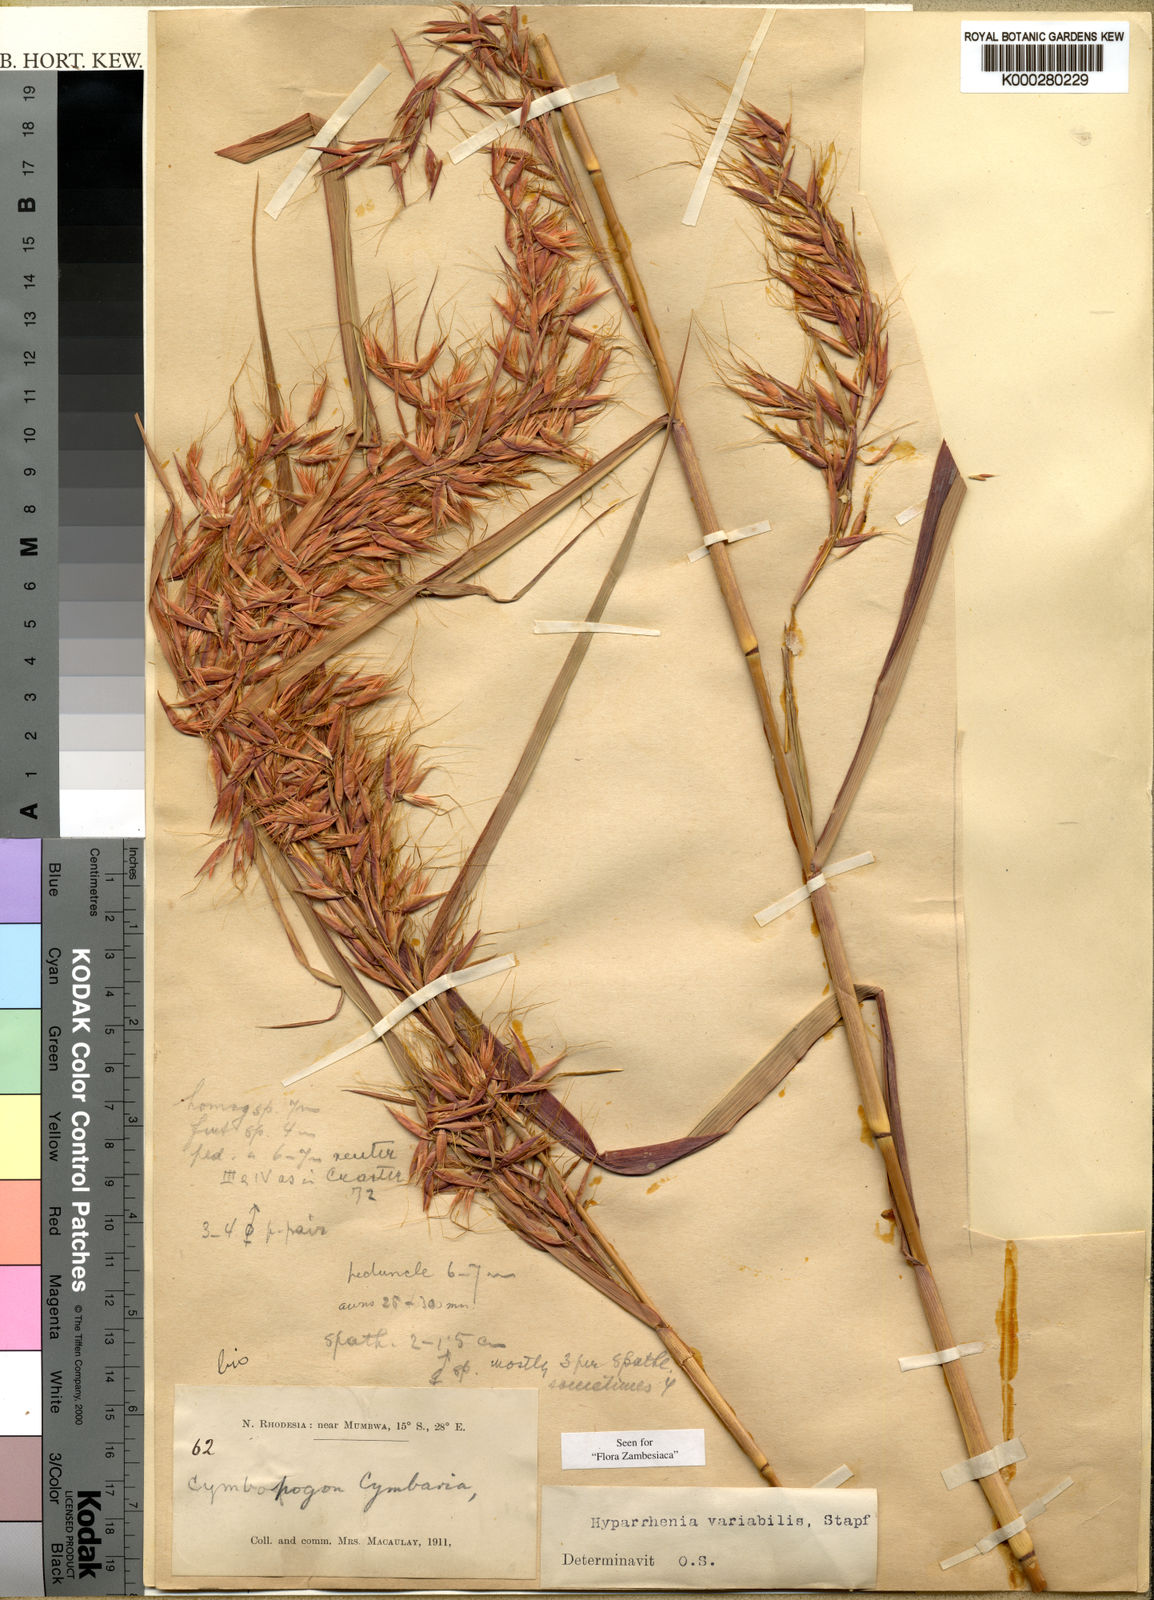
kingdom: Plantae
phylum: Tracheophyta
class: Liliopsida
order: Poales
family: Poaceae
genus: Hyparrhenia
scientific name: Hyparrhenia variabilis
